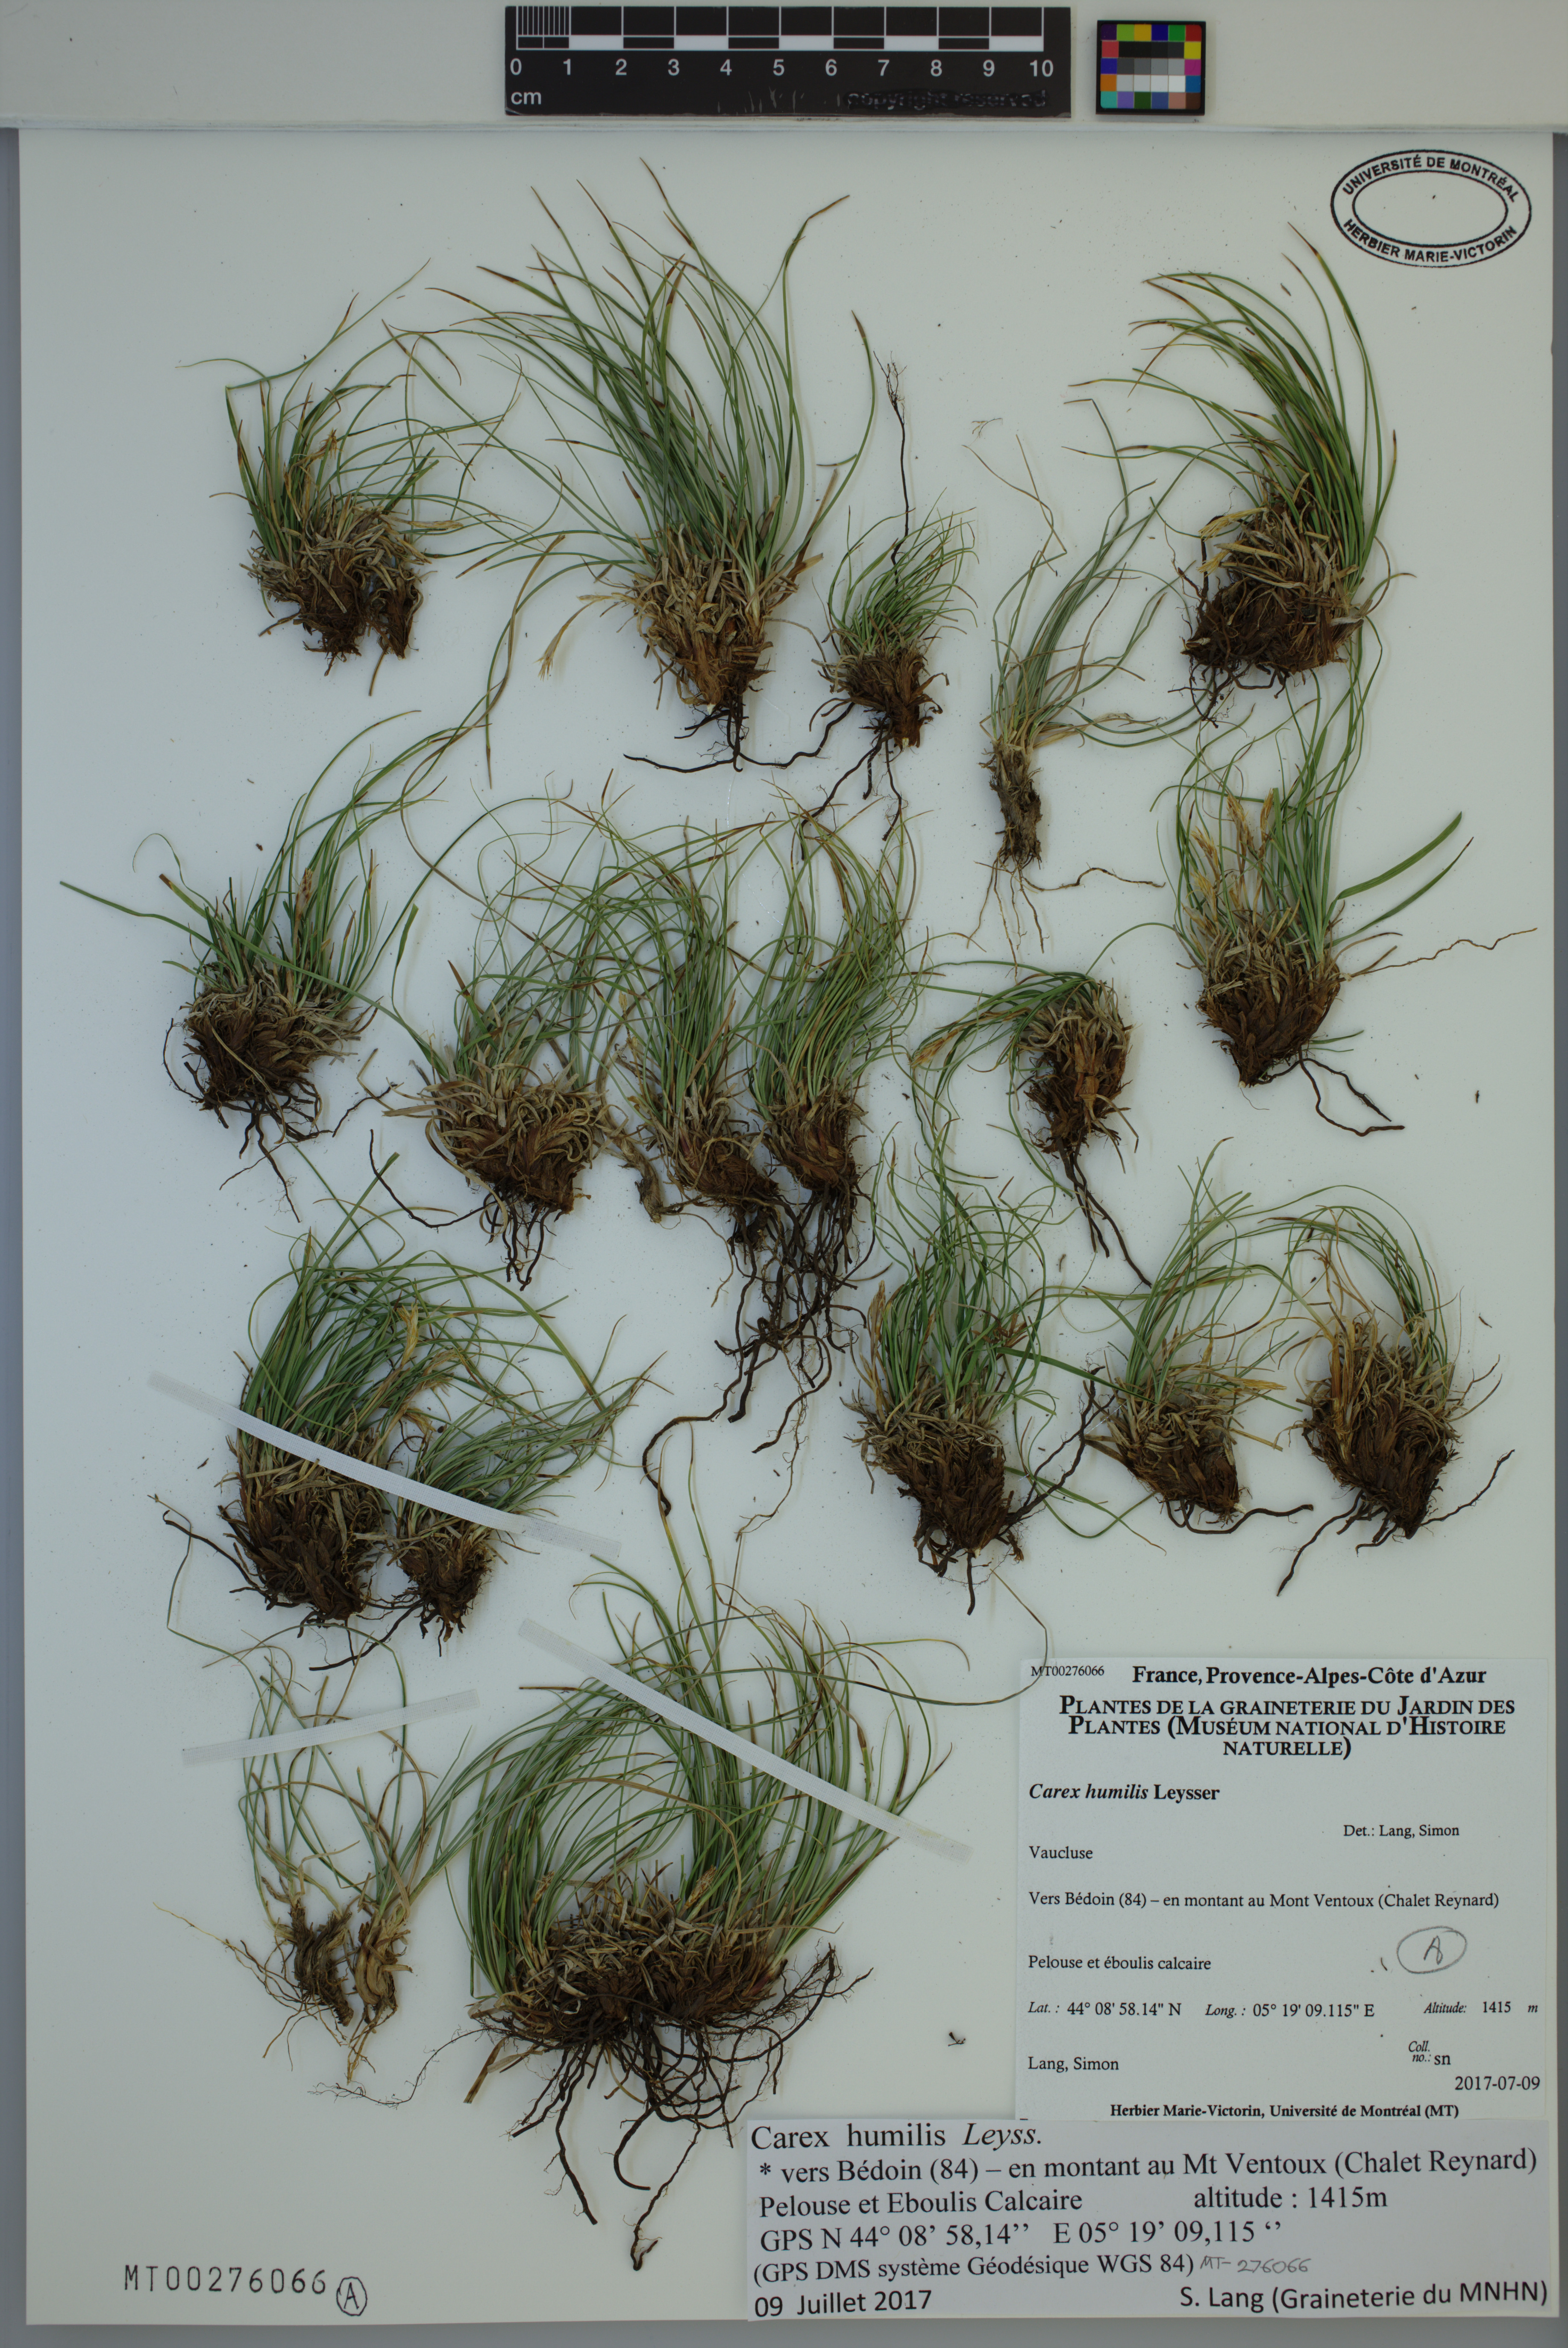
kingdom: Plantae
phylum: Tracheophyta
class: Liliopsida
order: Poales
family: Cyperaceae
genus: Carex
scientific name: Carex humilis
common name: Dwarf sedge
